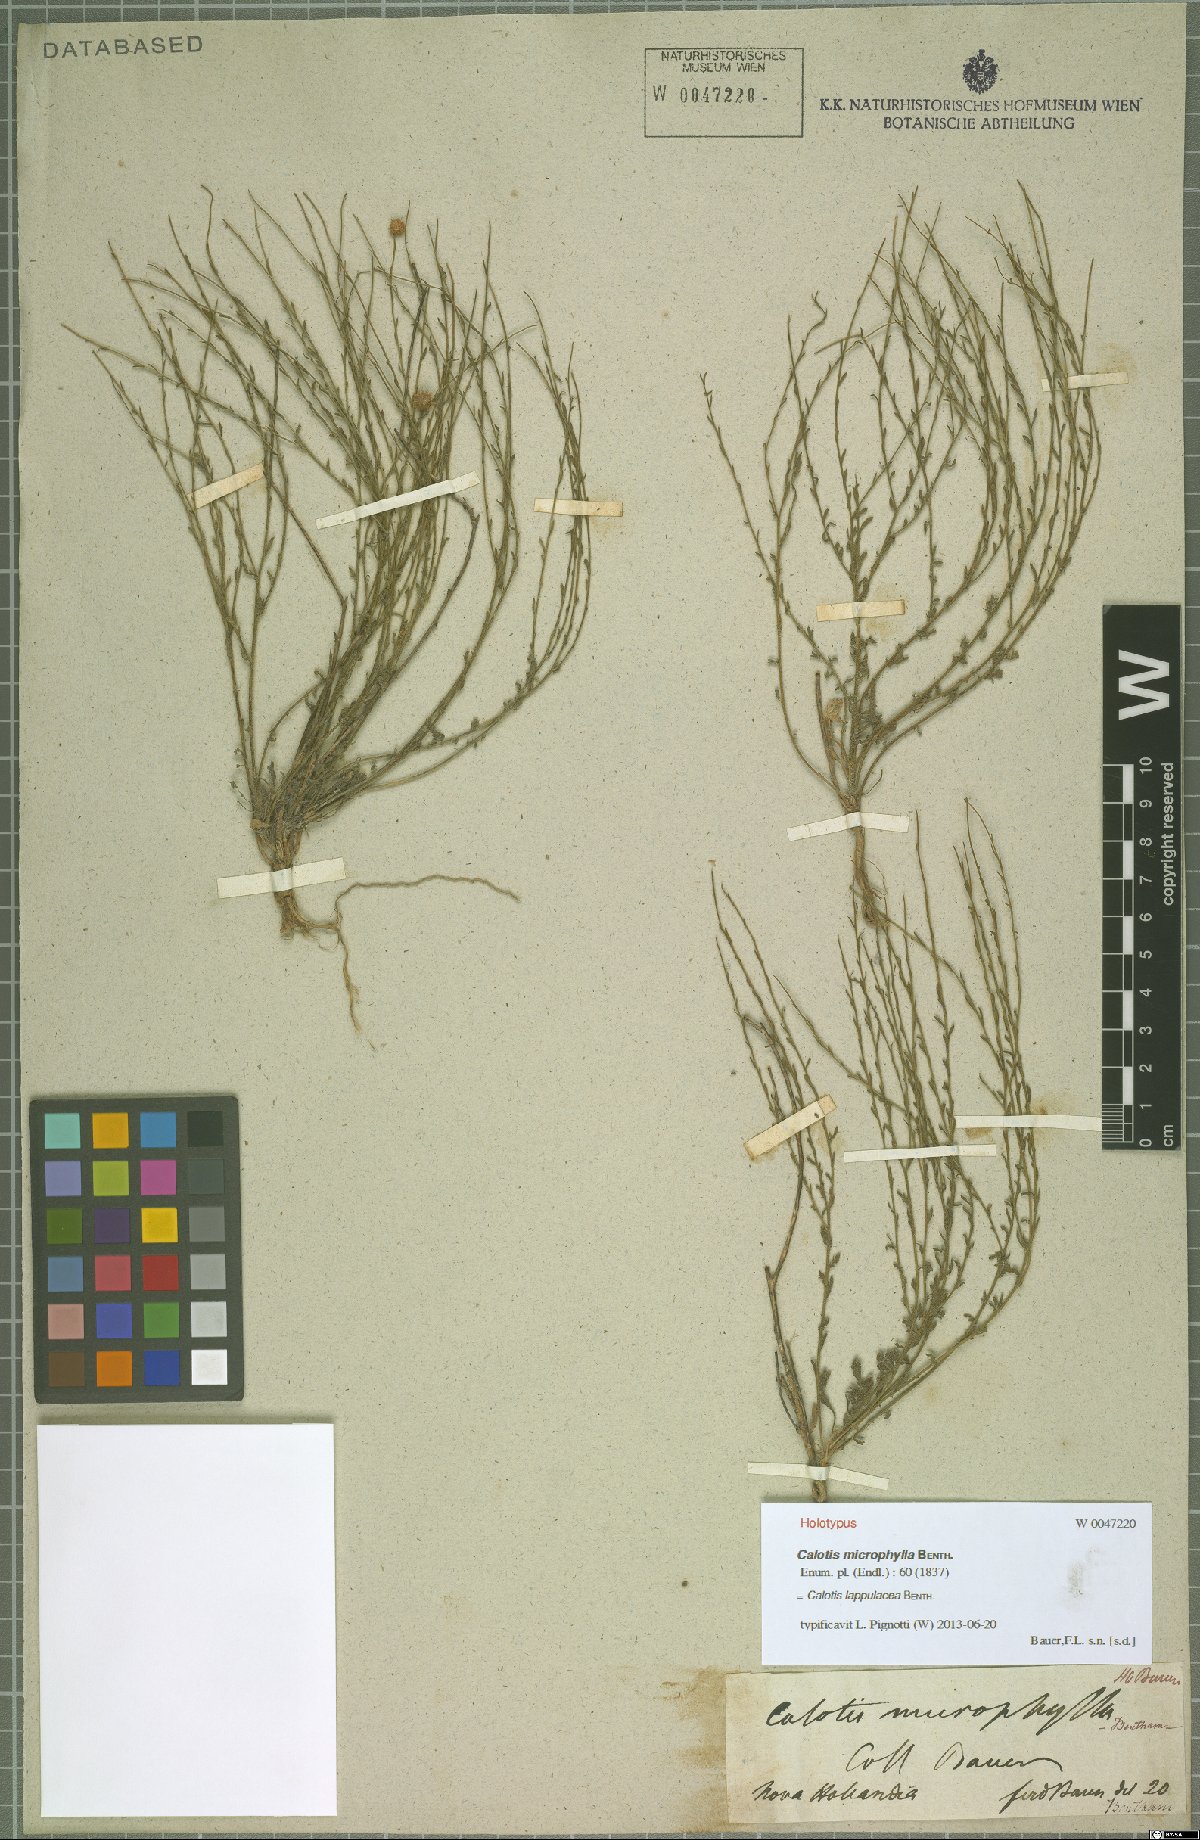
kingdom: Plantae
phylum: Tracheophyta
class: Magnoliopsida
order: Asterales
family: Asteraceae
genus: Calotis
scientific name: Calotis lappulacea
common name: Bur daisy
